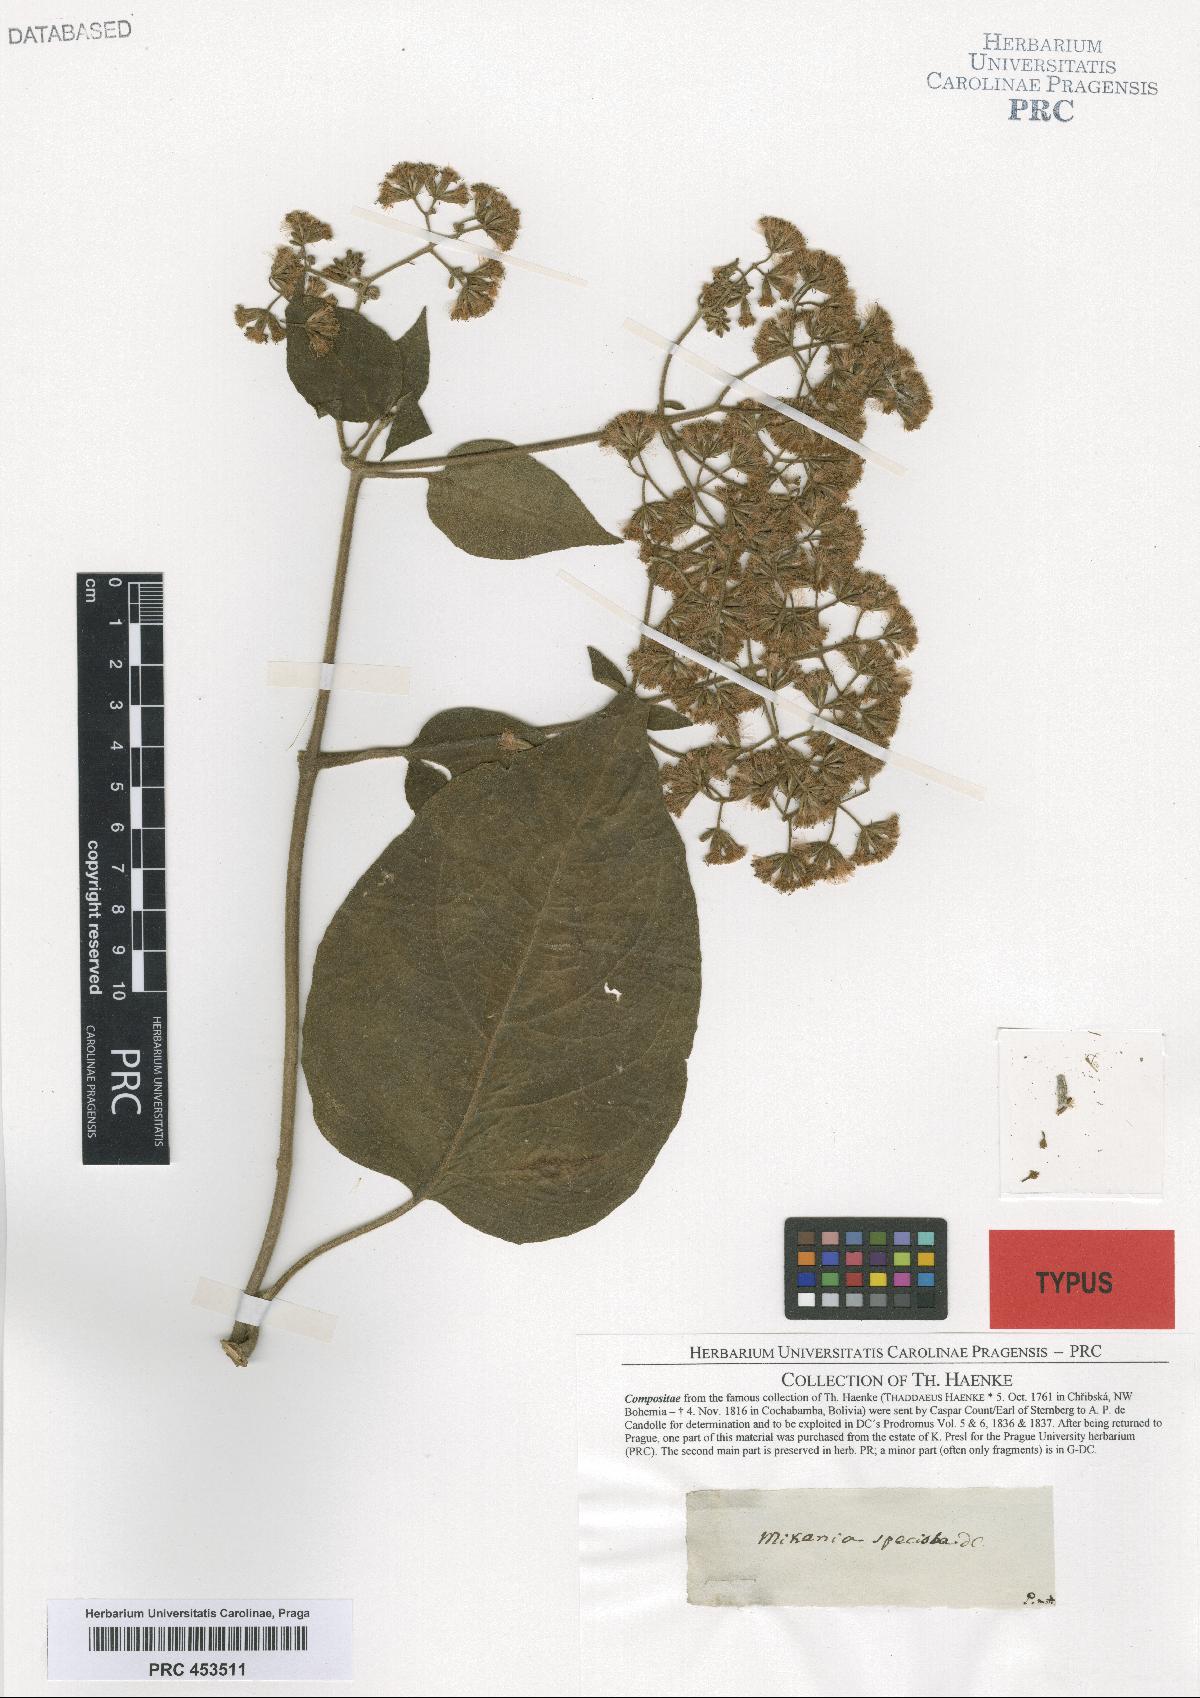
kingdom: Plantae
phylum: Tracheophyta
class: Magnoliopsida
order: Asterales
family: Asteraceae
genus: Mikania
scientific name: Mikania speciosa
